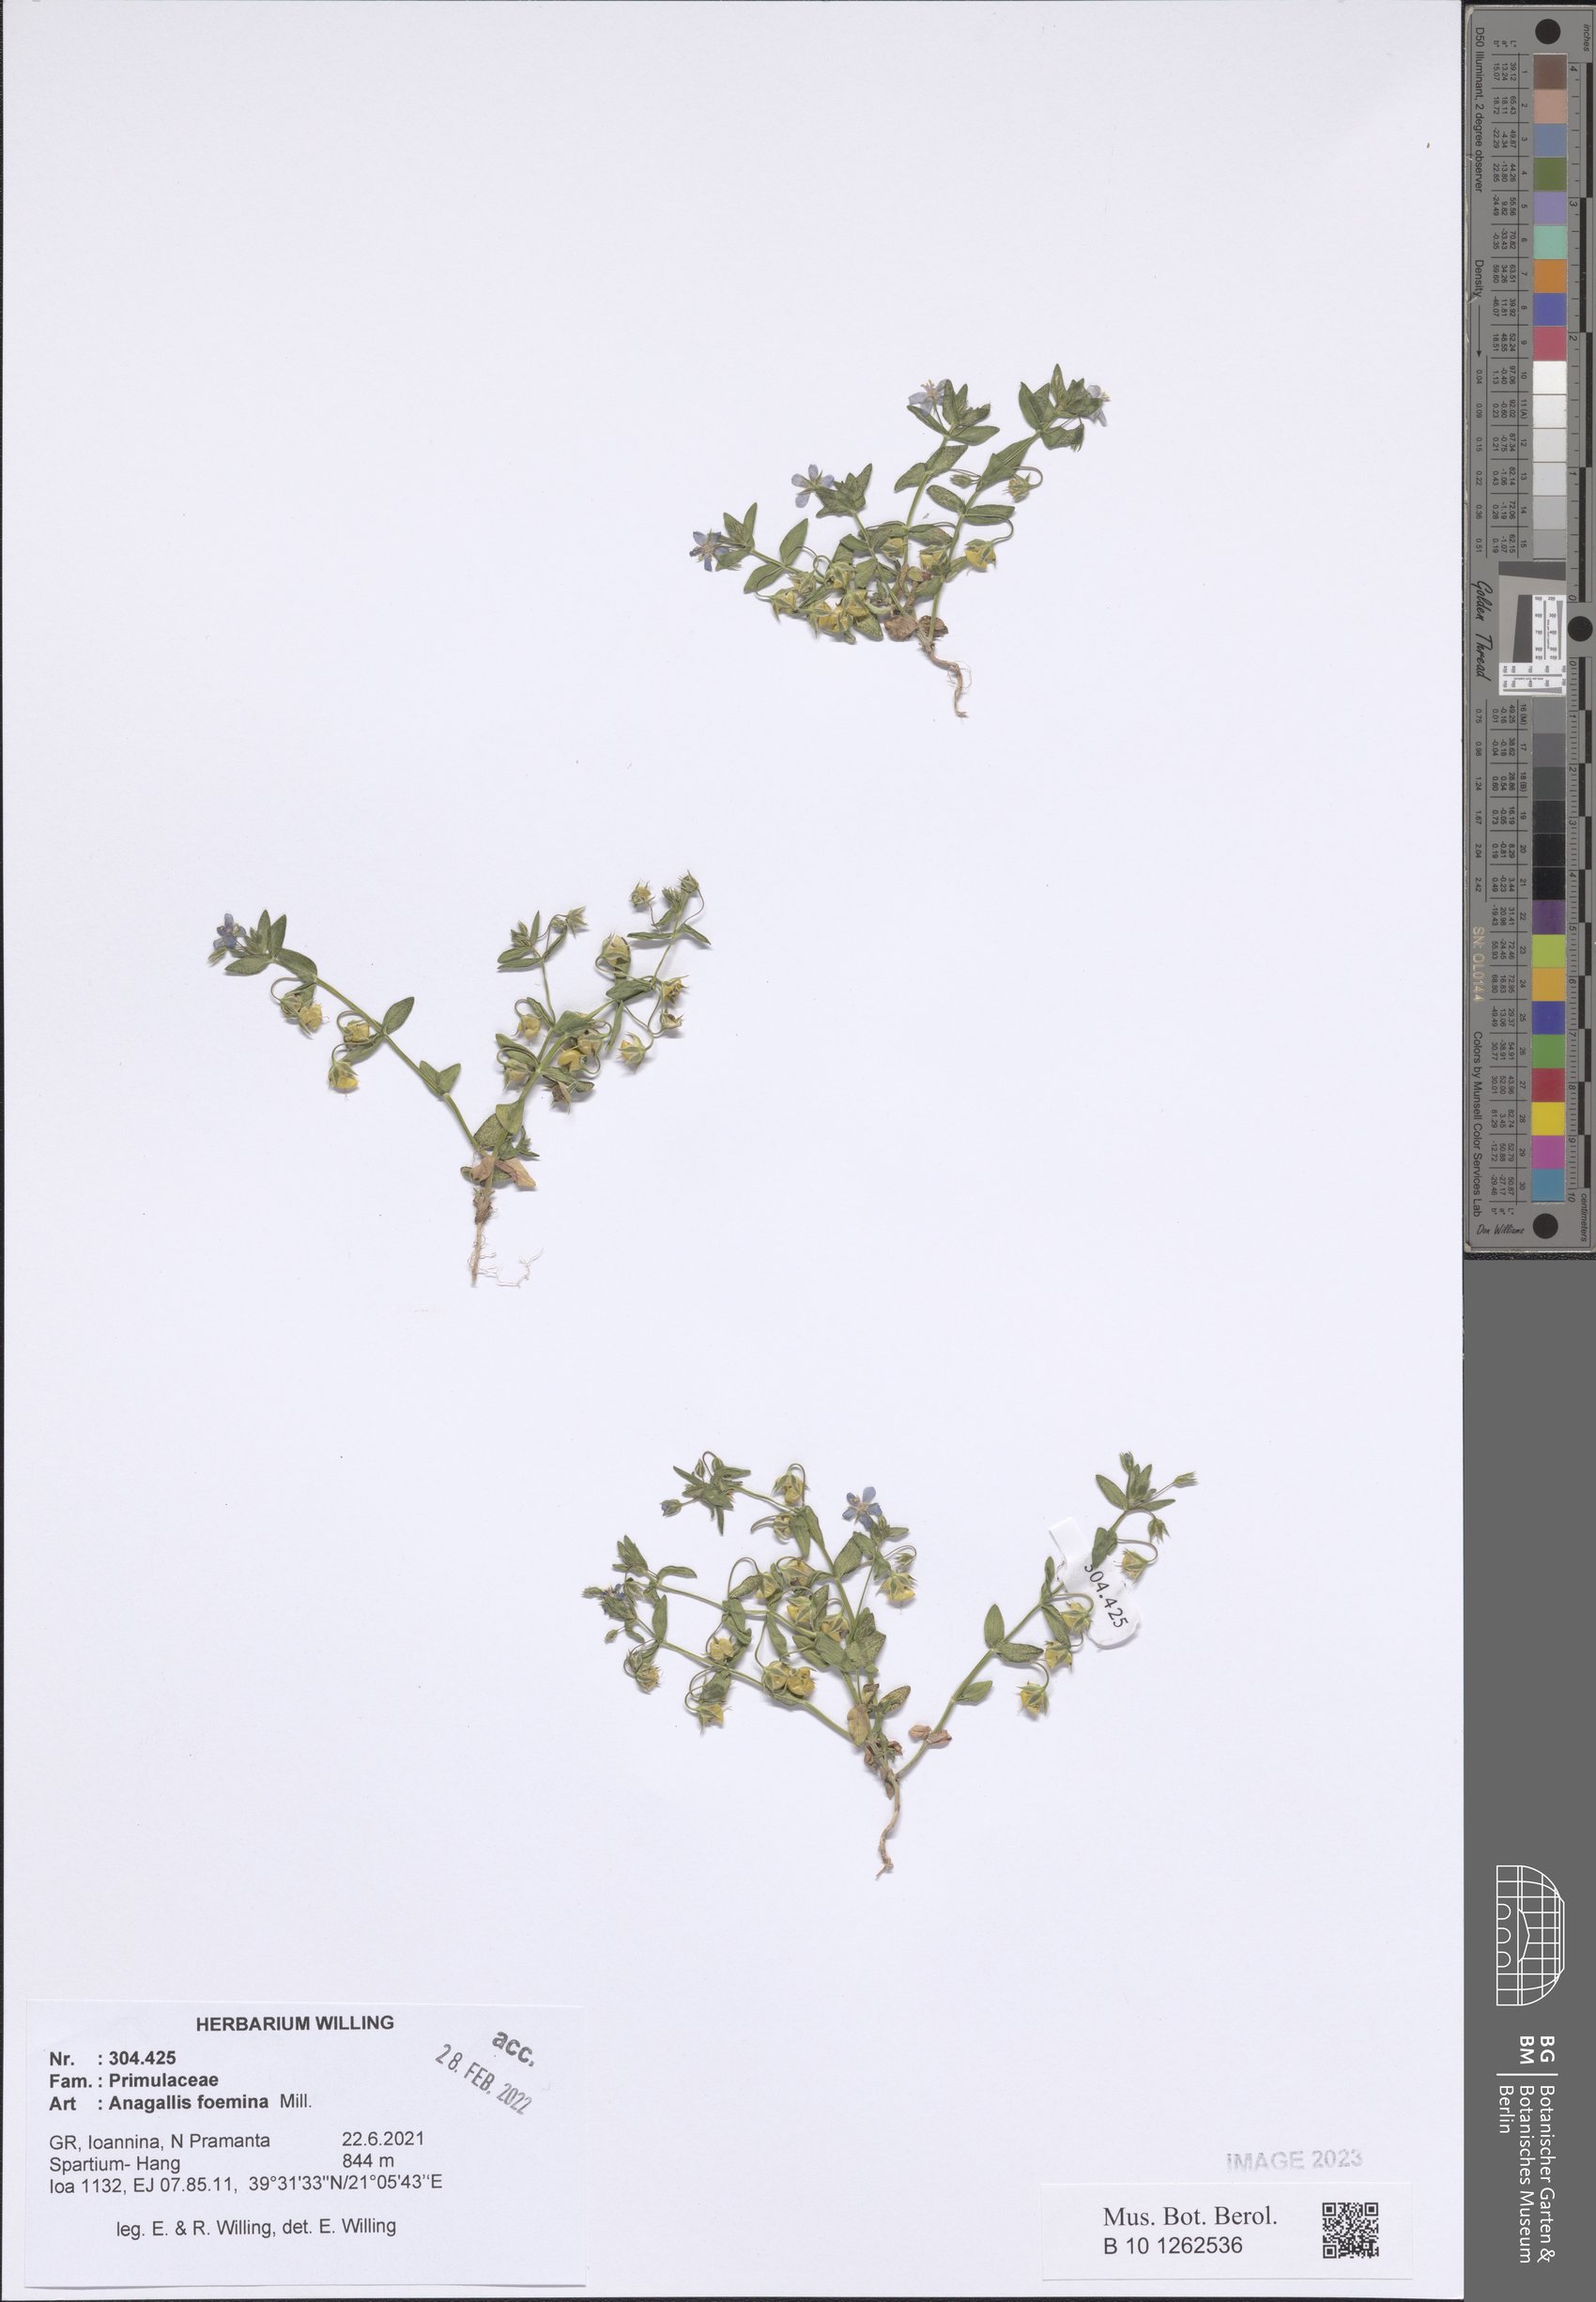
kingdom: Plantae
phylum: Tracheophyta
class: Magnoliopsida
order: Ericales
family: Primulaceae
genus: Lysimachia
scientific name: Lysimachia foemina
